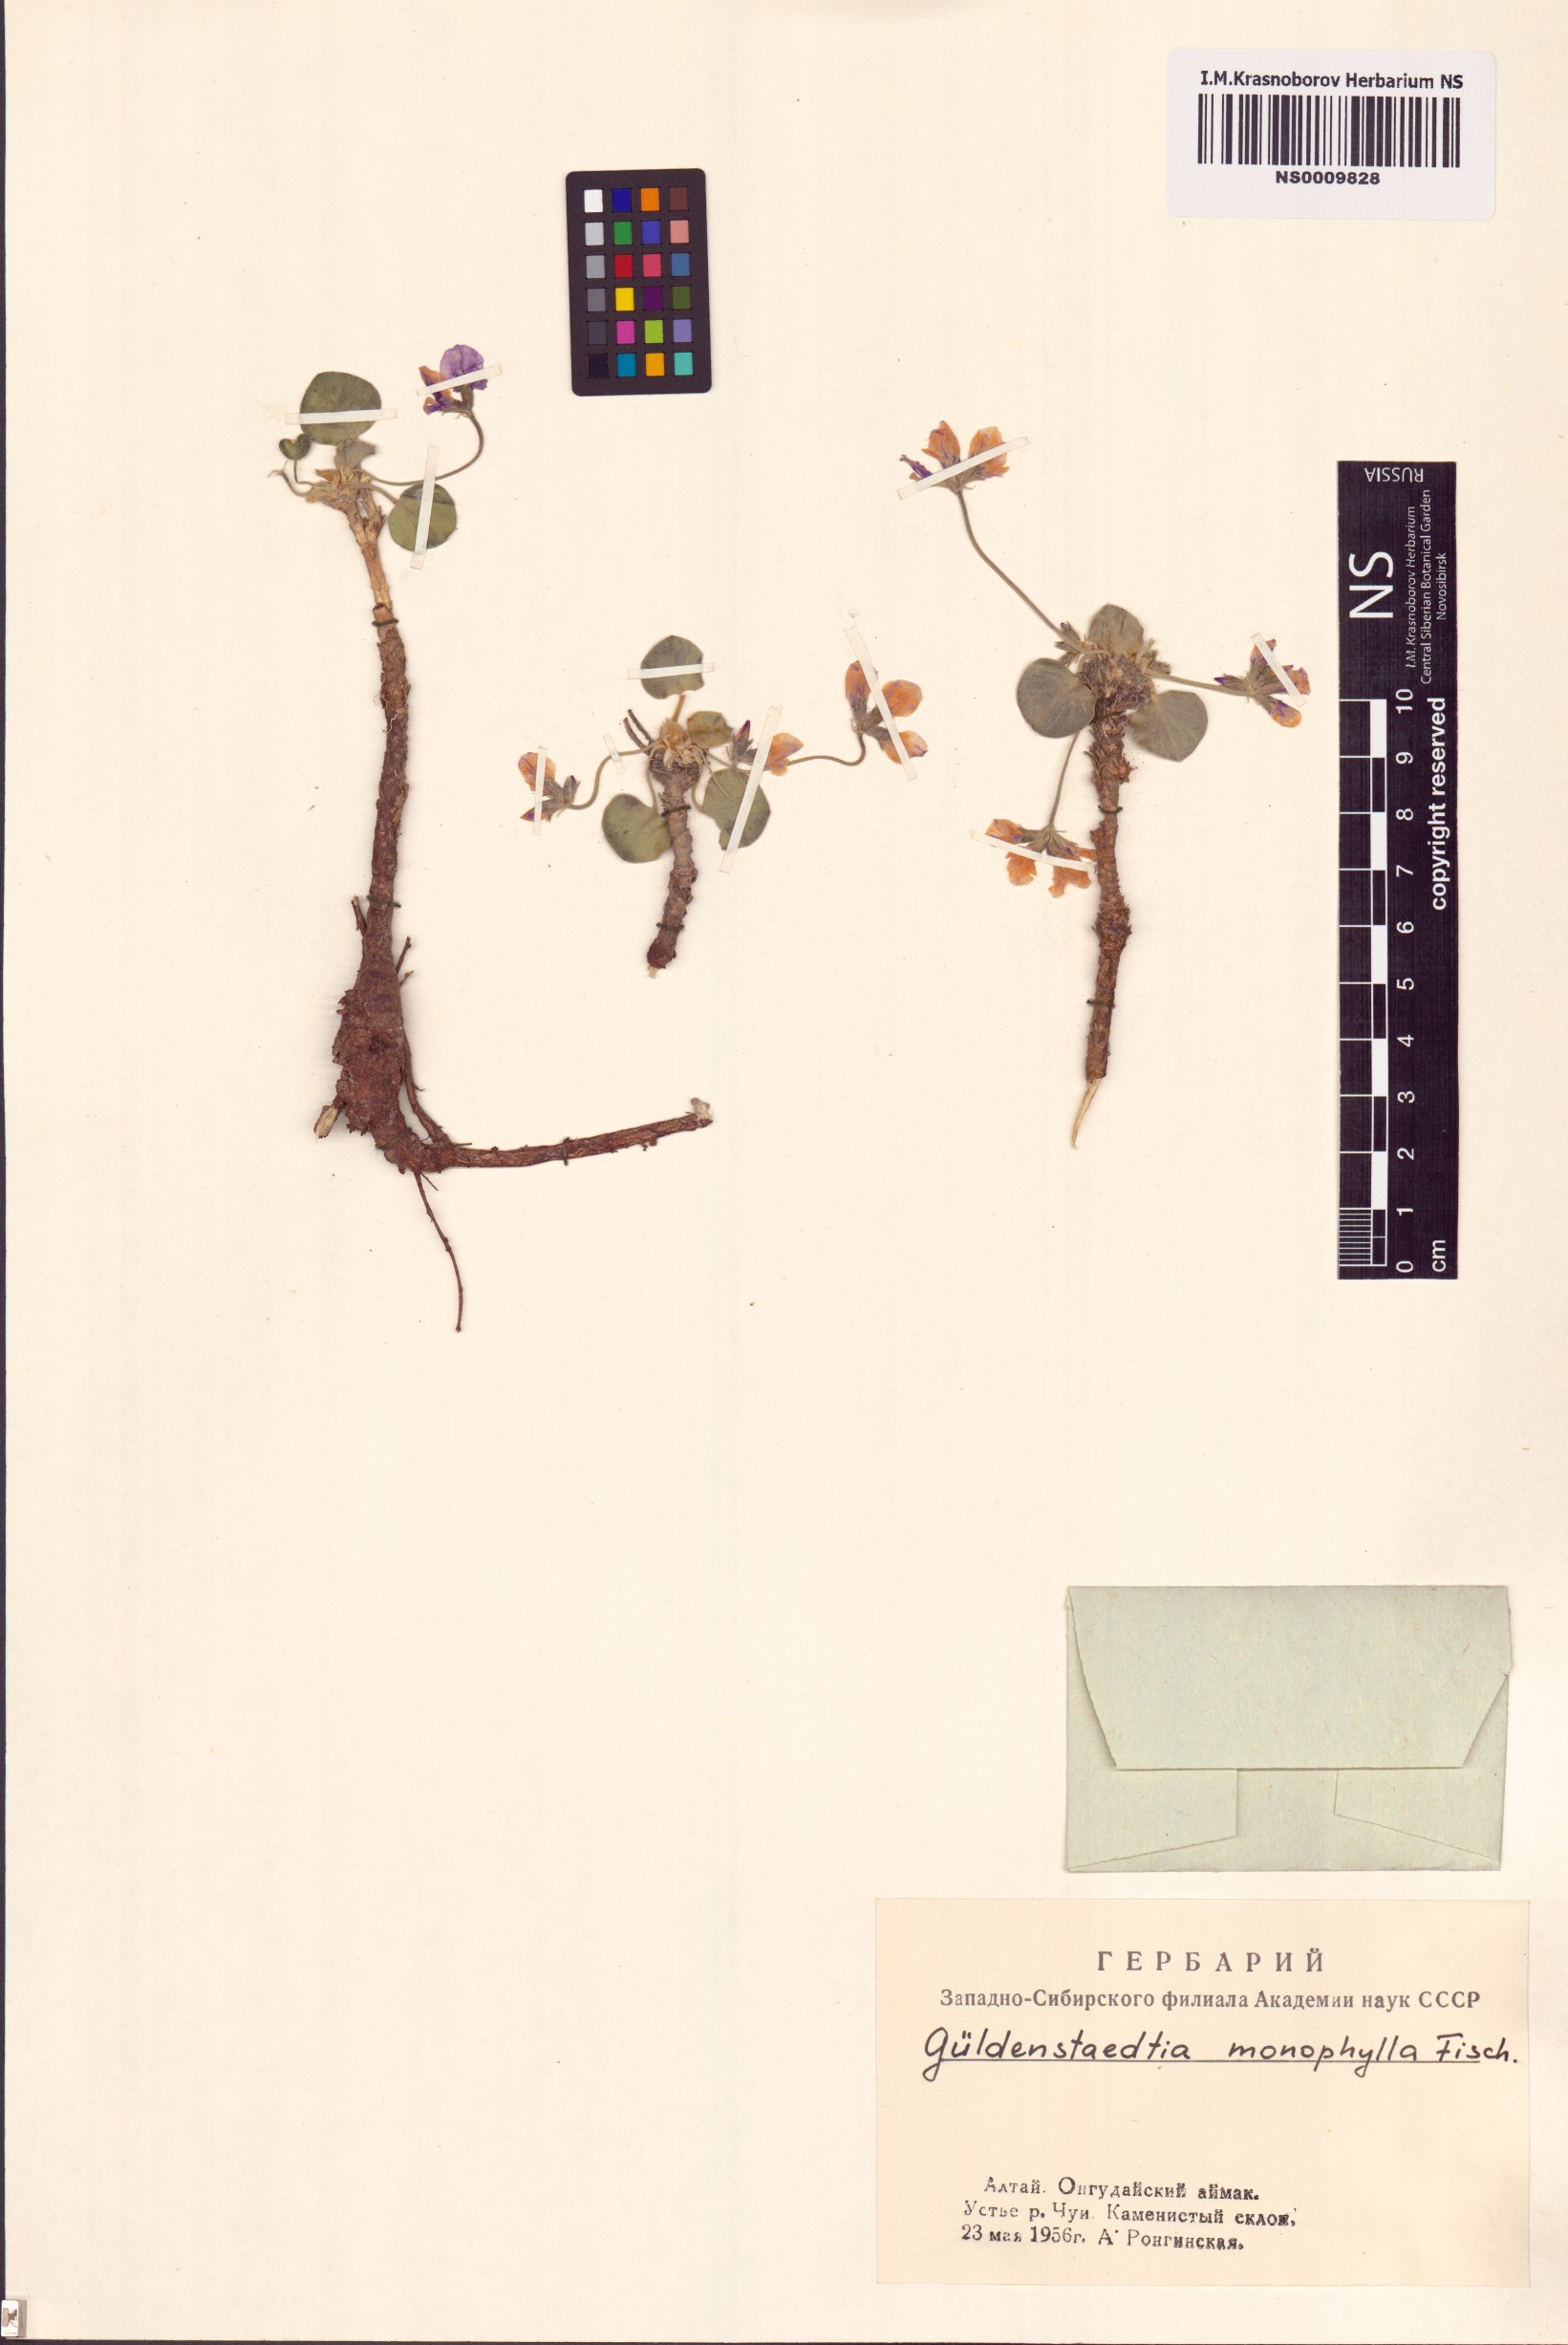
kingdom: Plantae
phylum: Tracheophyta
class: Magnoliopsida
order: Fabales
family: Fabaceae
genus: Gueldenstaedtia
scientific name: Gueldenstaedtia monophylla
